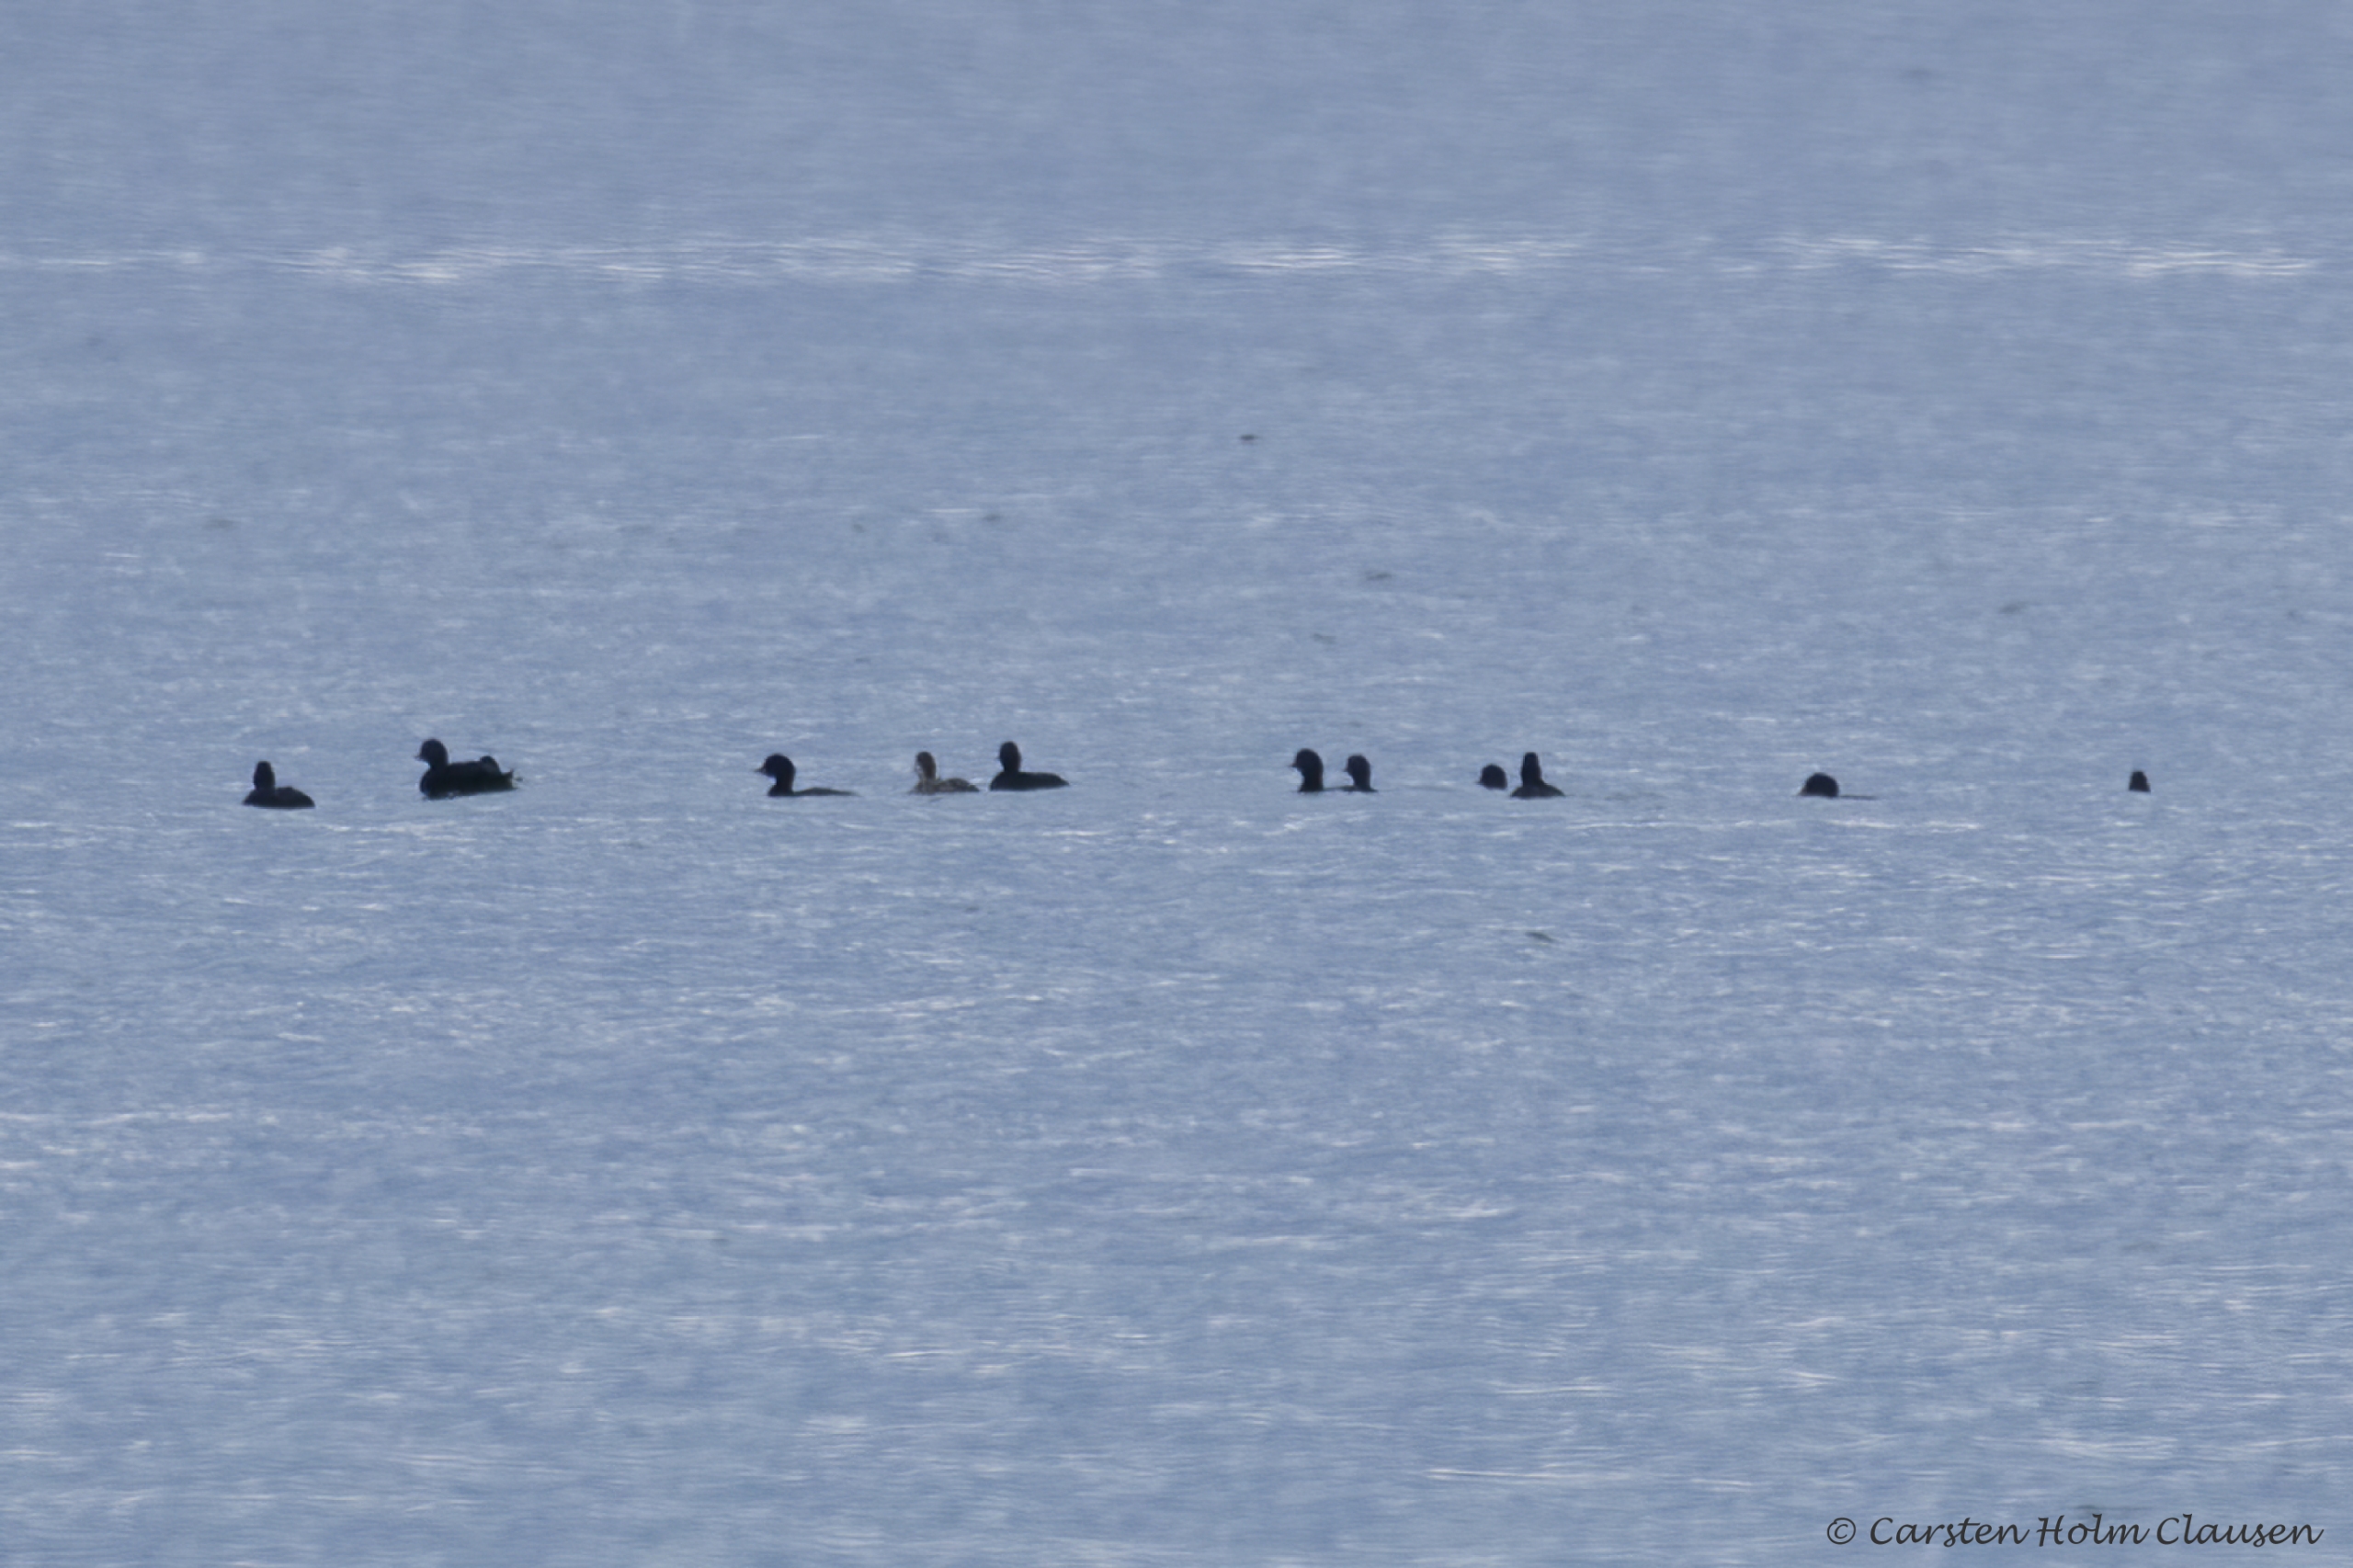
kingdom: Animalia
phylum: Chordata
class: Aves
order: Anseriformes
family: Anatidae
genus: Melanitta
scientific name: Melanitta nigra
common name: Sortand
